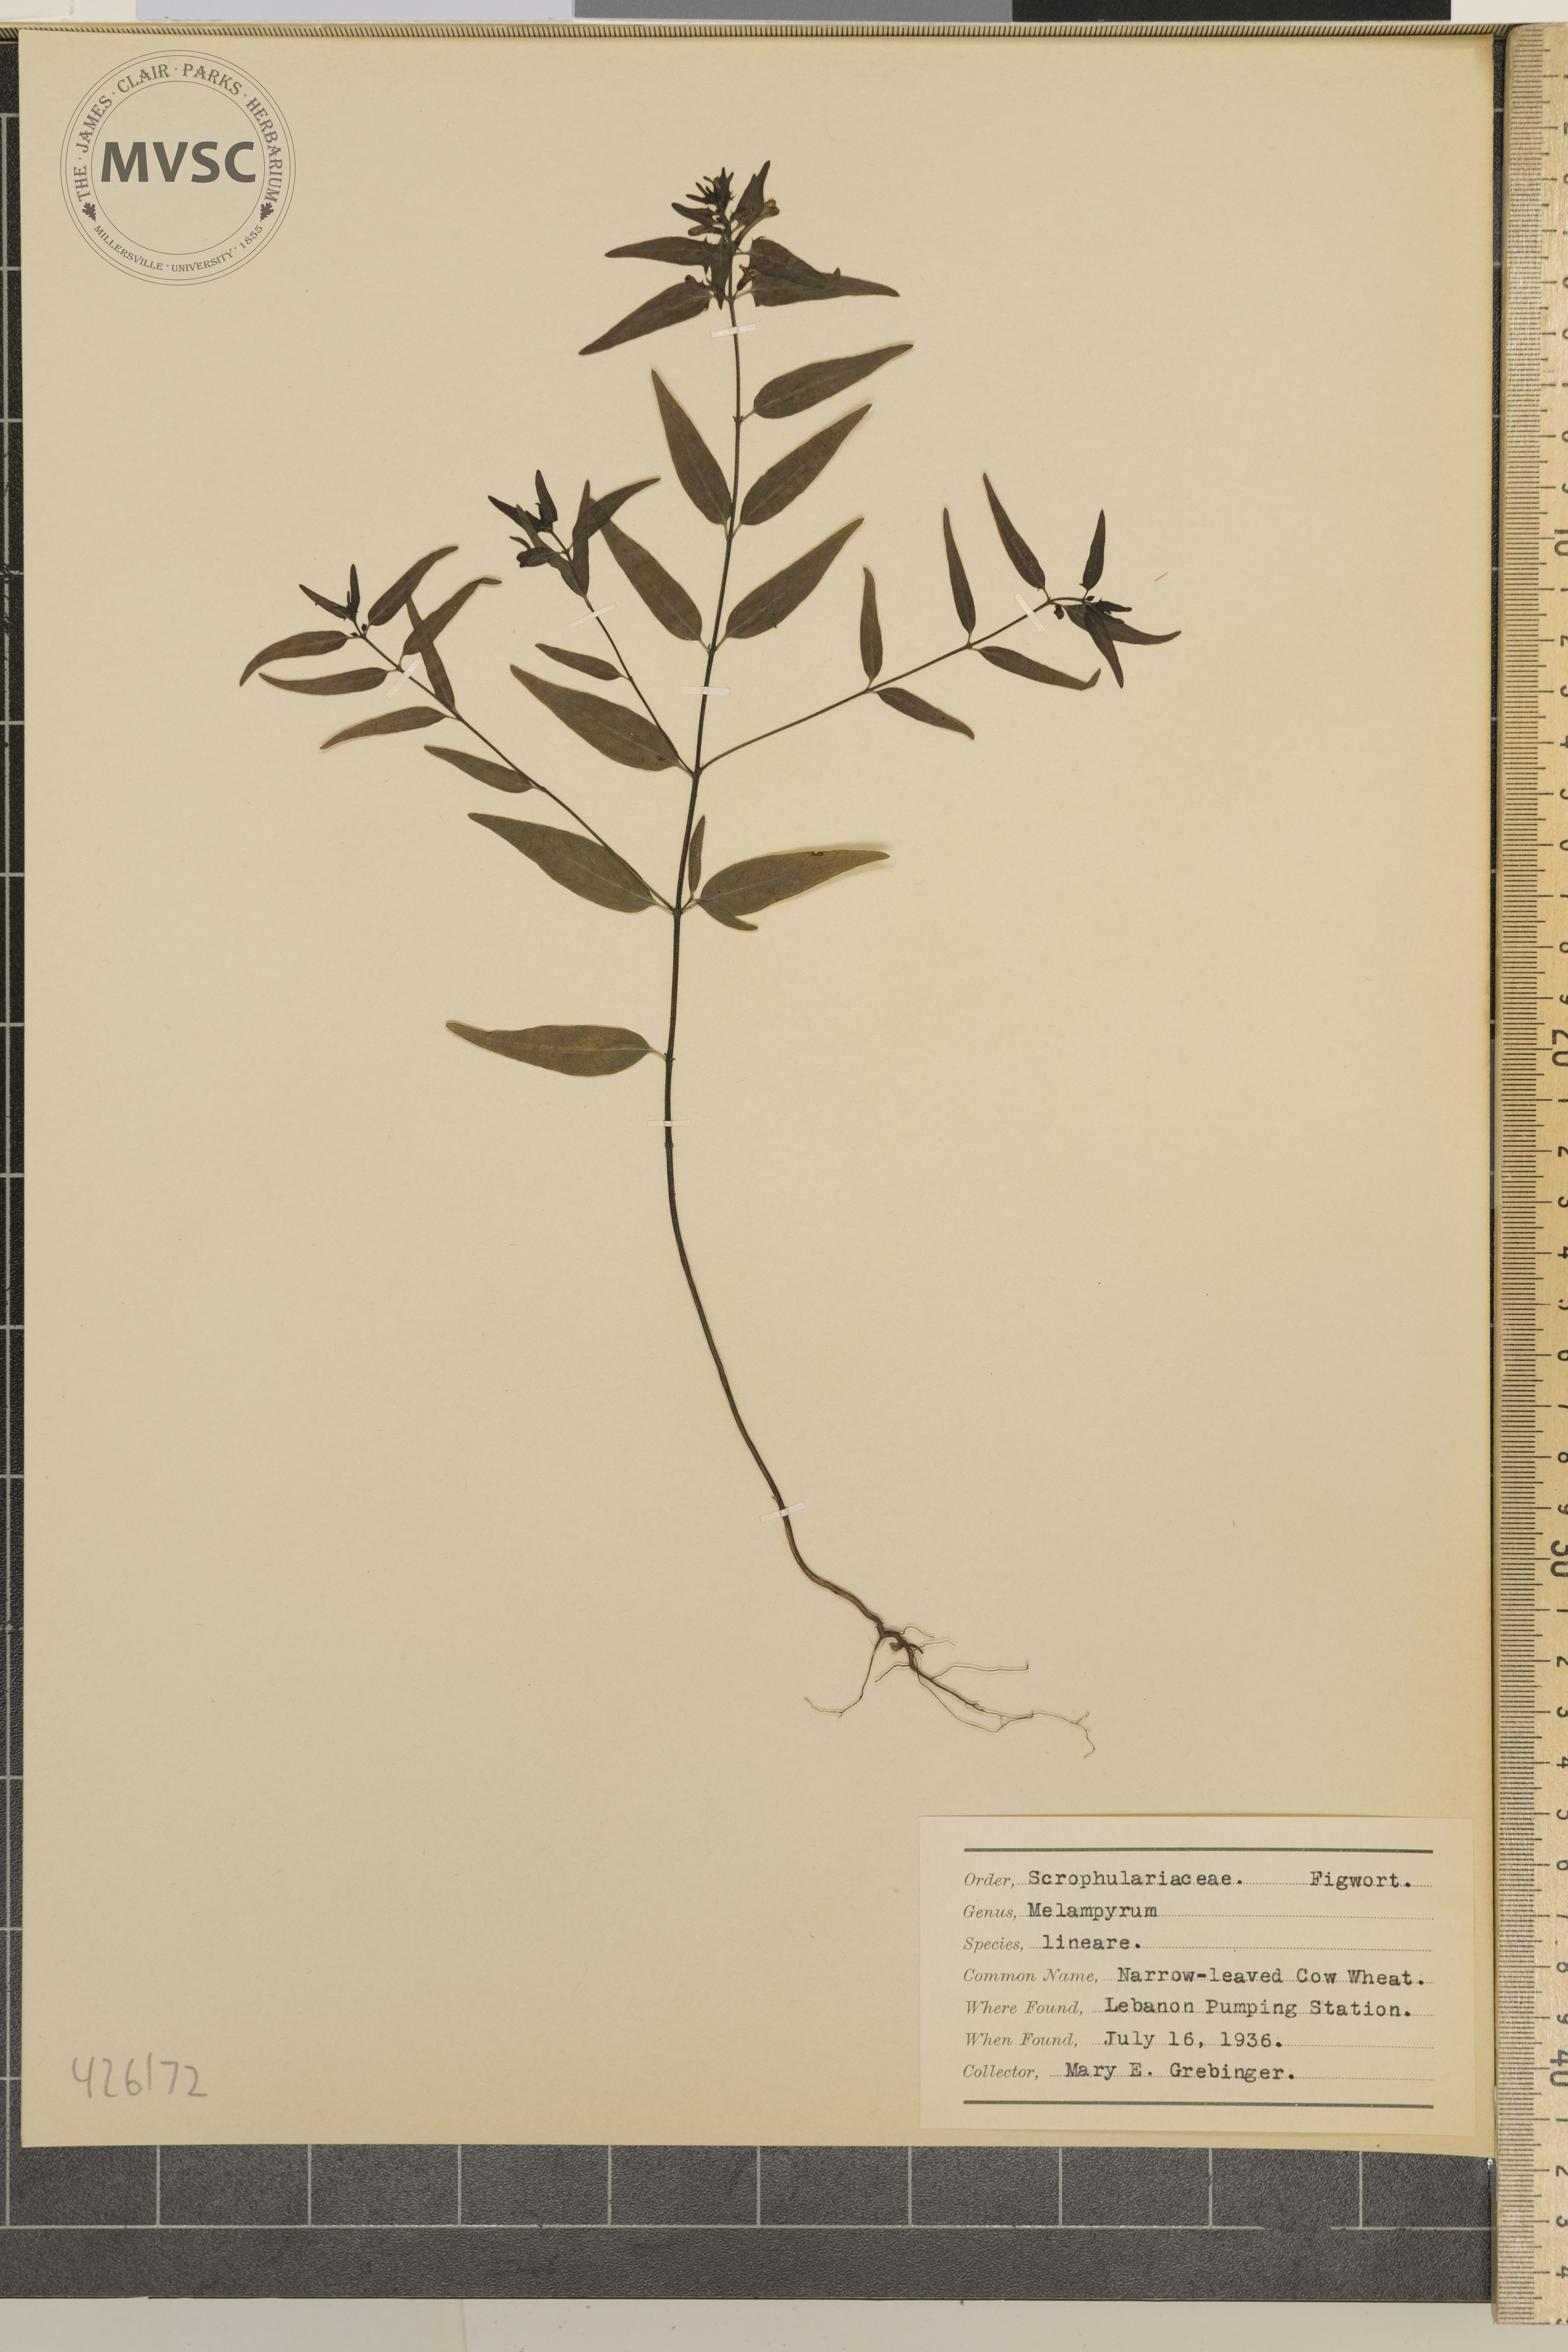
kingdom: Plantae
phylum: Tracheophyta
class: Magnoliopsida
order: Lamiales
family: Orobanchaceae
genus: Melampyrum
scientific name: Melampyrum lineare
